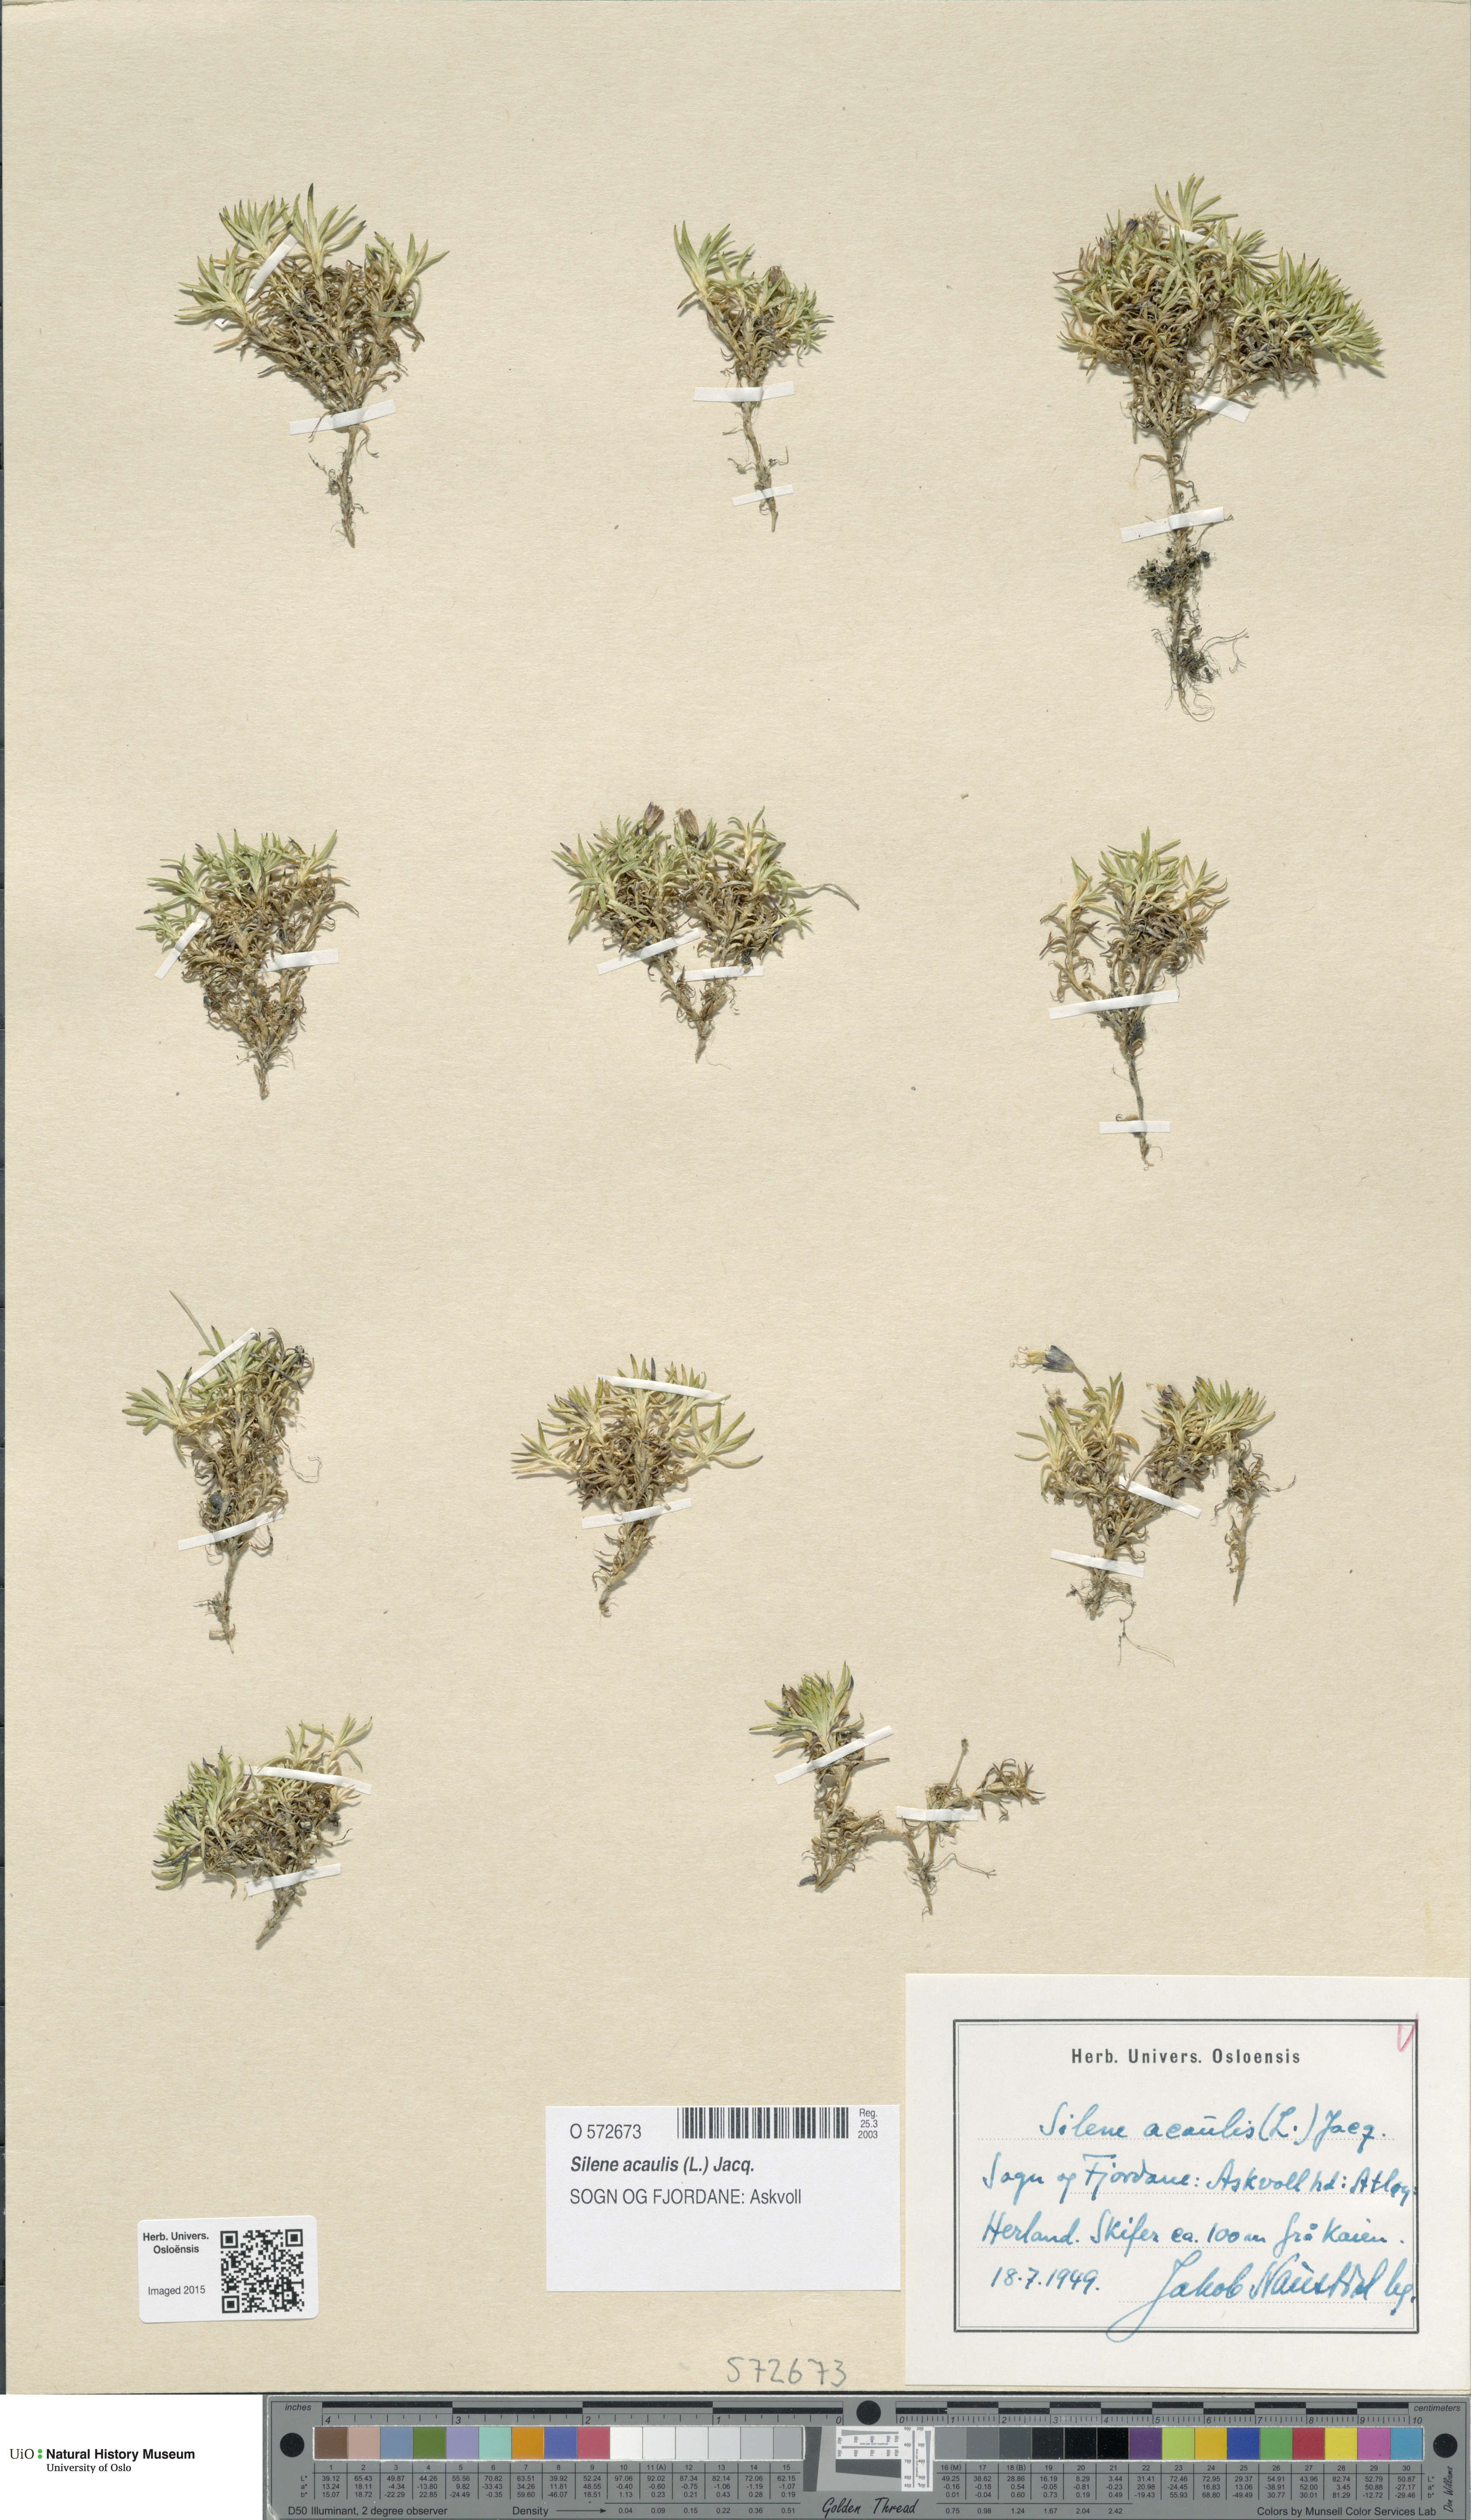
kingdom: Plantae
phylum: Tracheophyta
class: Magnoliopsida
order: Caryophyllales
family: Caryophyllaceae
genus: Silene
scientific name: Silene acaulis
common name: Moss campion
